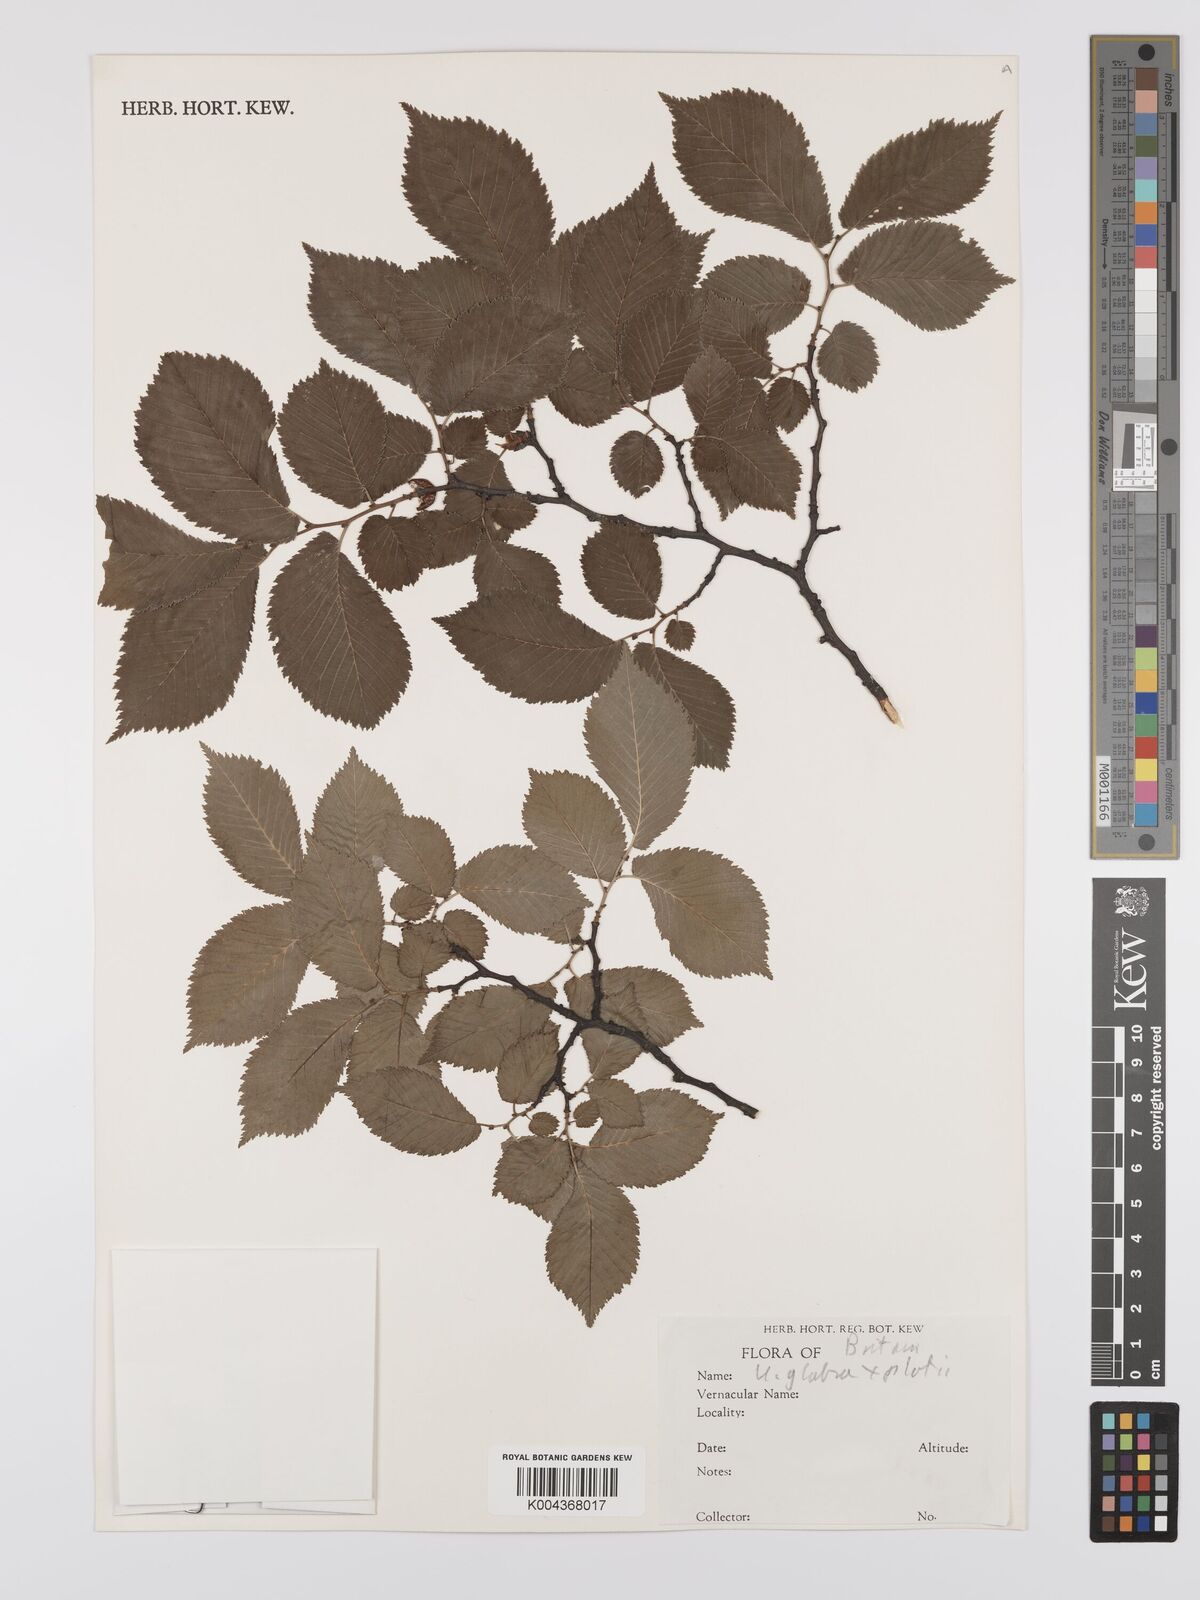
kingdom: Plantae
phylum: Tracheophyta
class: Magnoliopsida
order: Rosales
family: Ulmaceae
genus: Ulmus
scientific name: Ulmus
